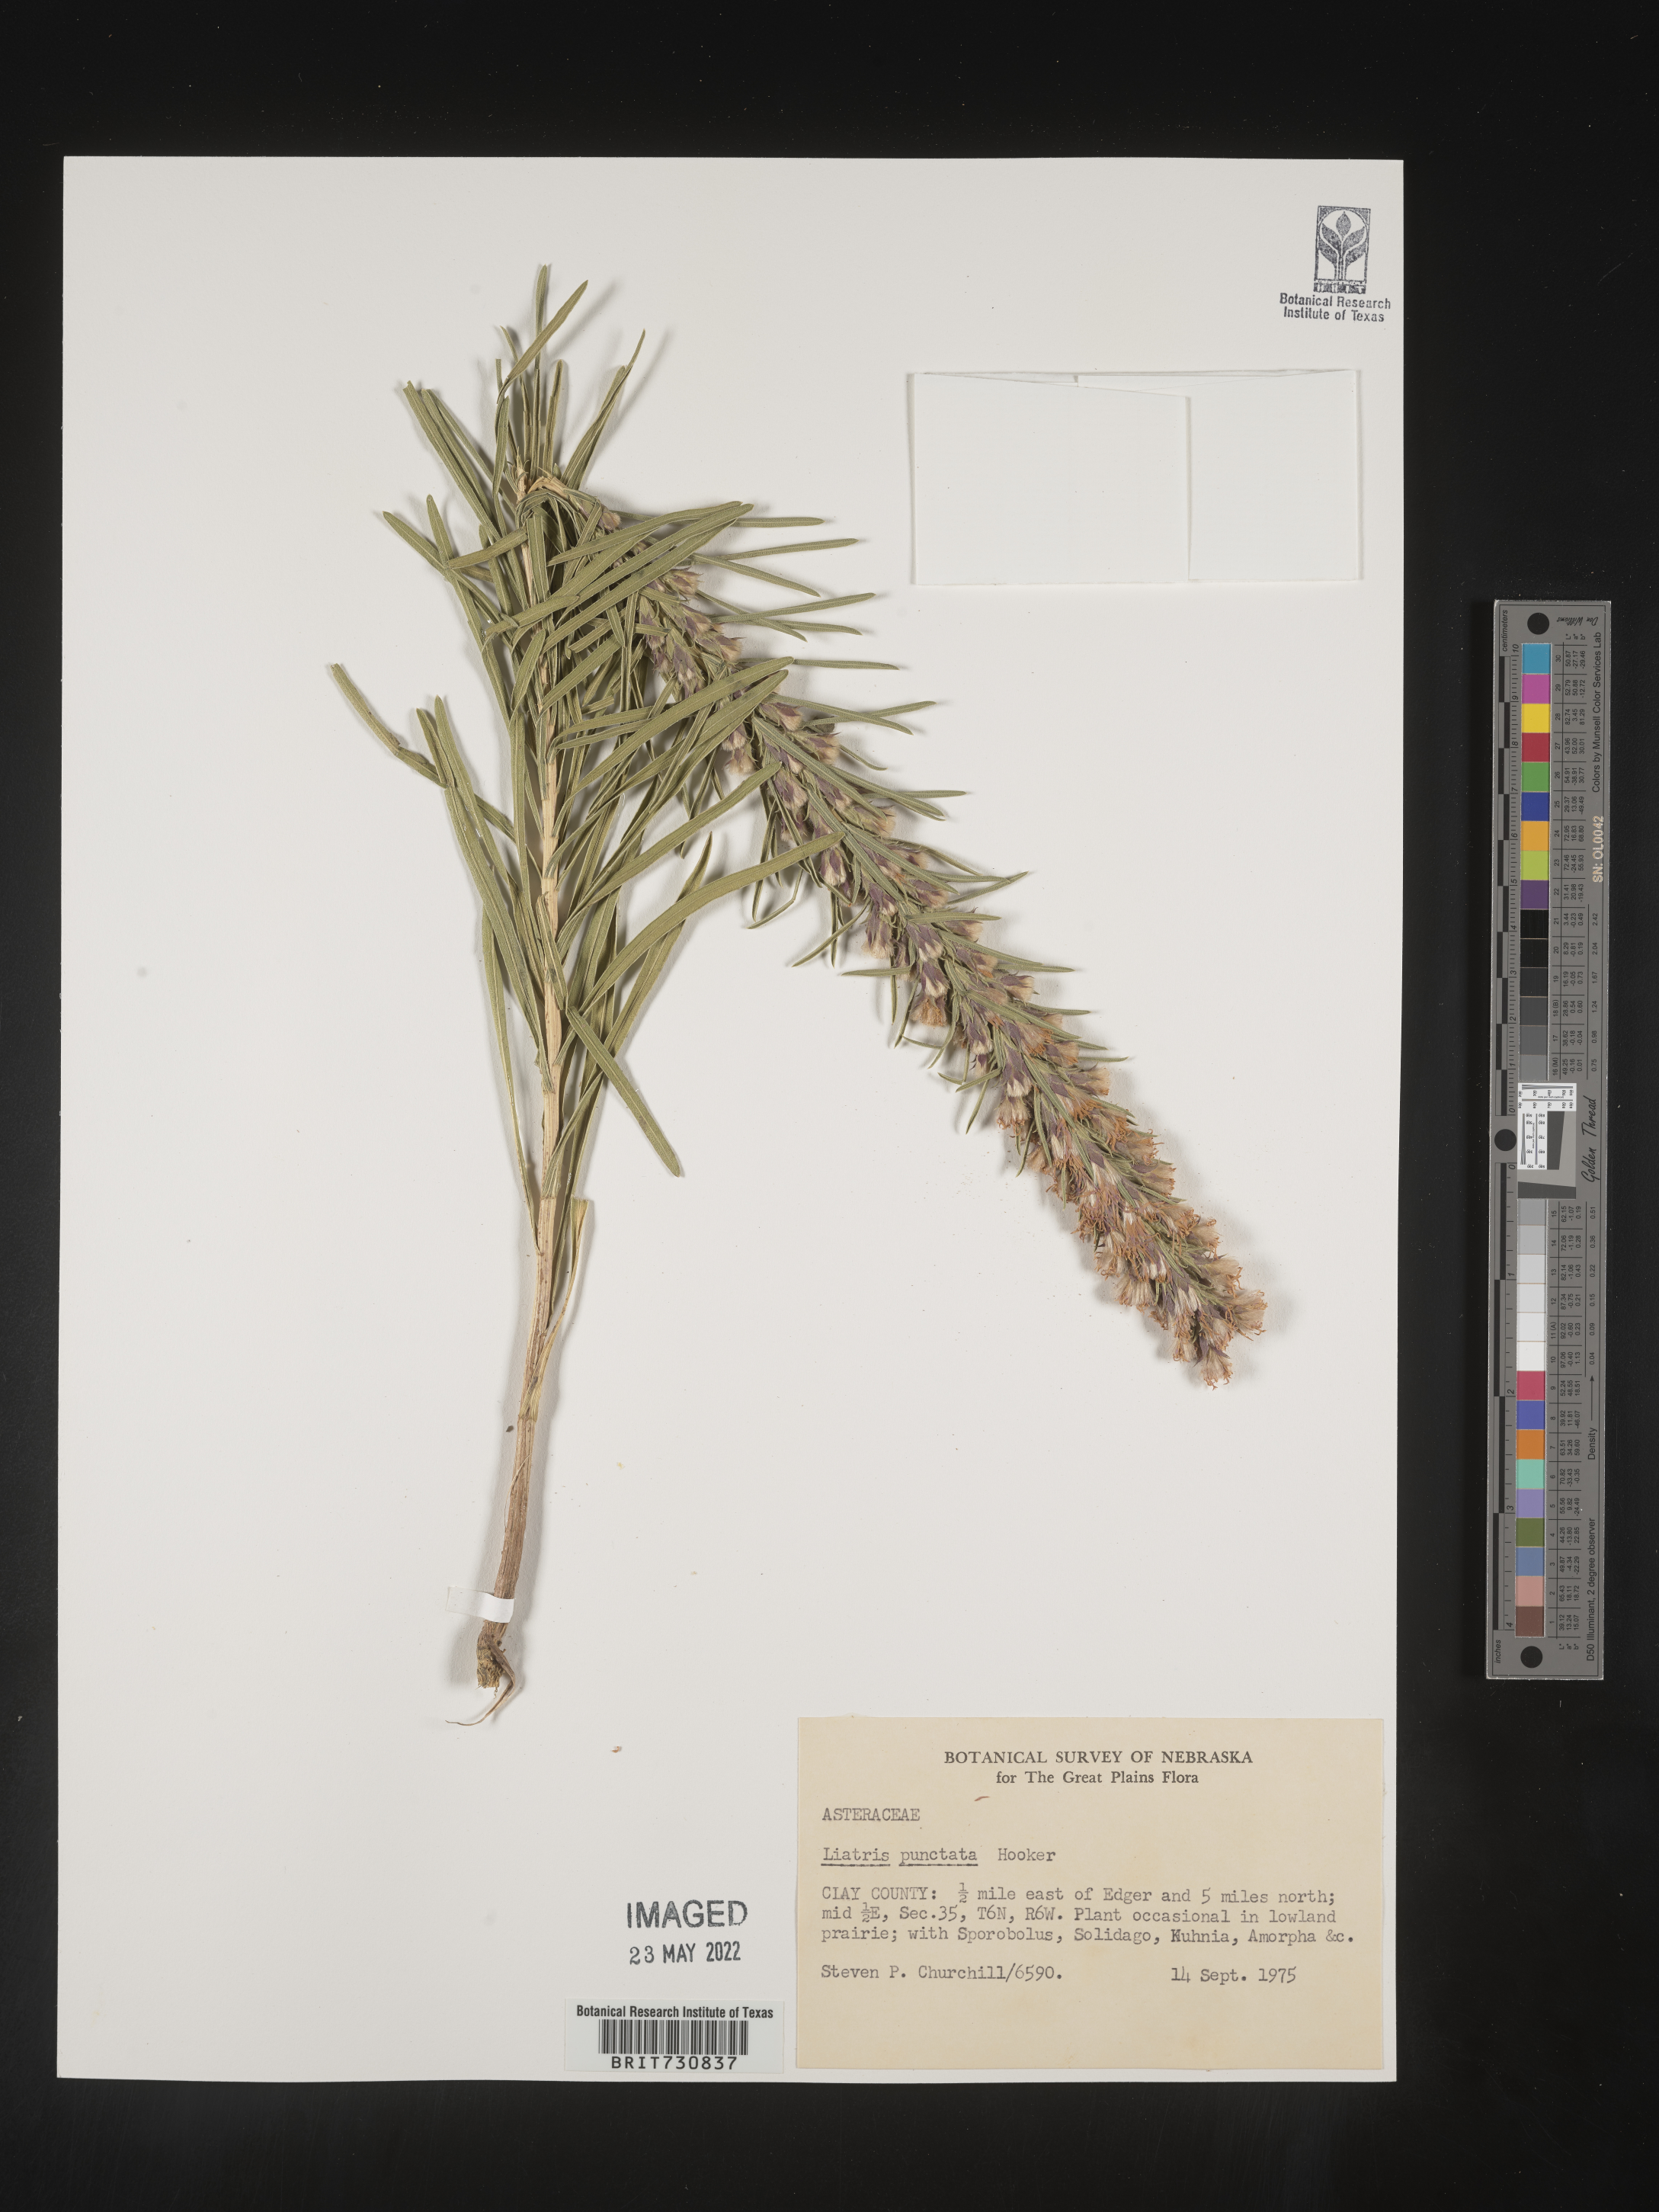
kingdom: Plantae
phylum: Tracheophyta
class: Magnoliopsida
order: Asterales
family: Asteraceae
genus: Liatris
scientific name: Liatris punctata
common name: Dotted gayfeather
